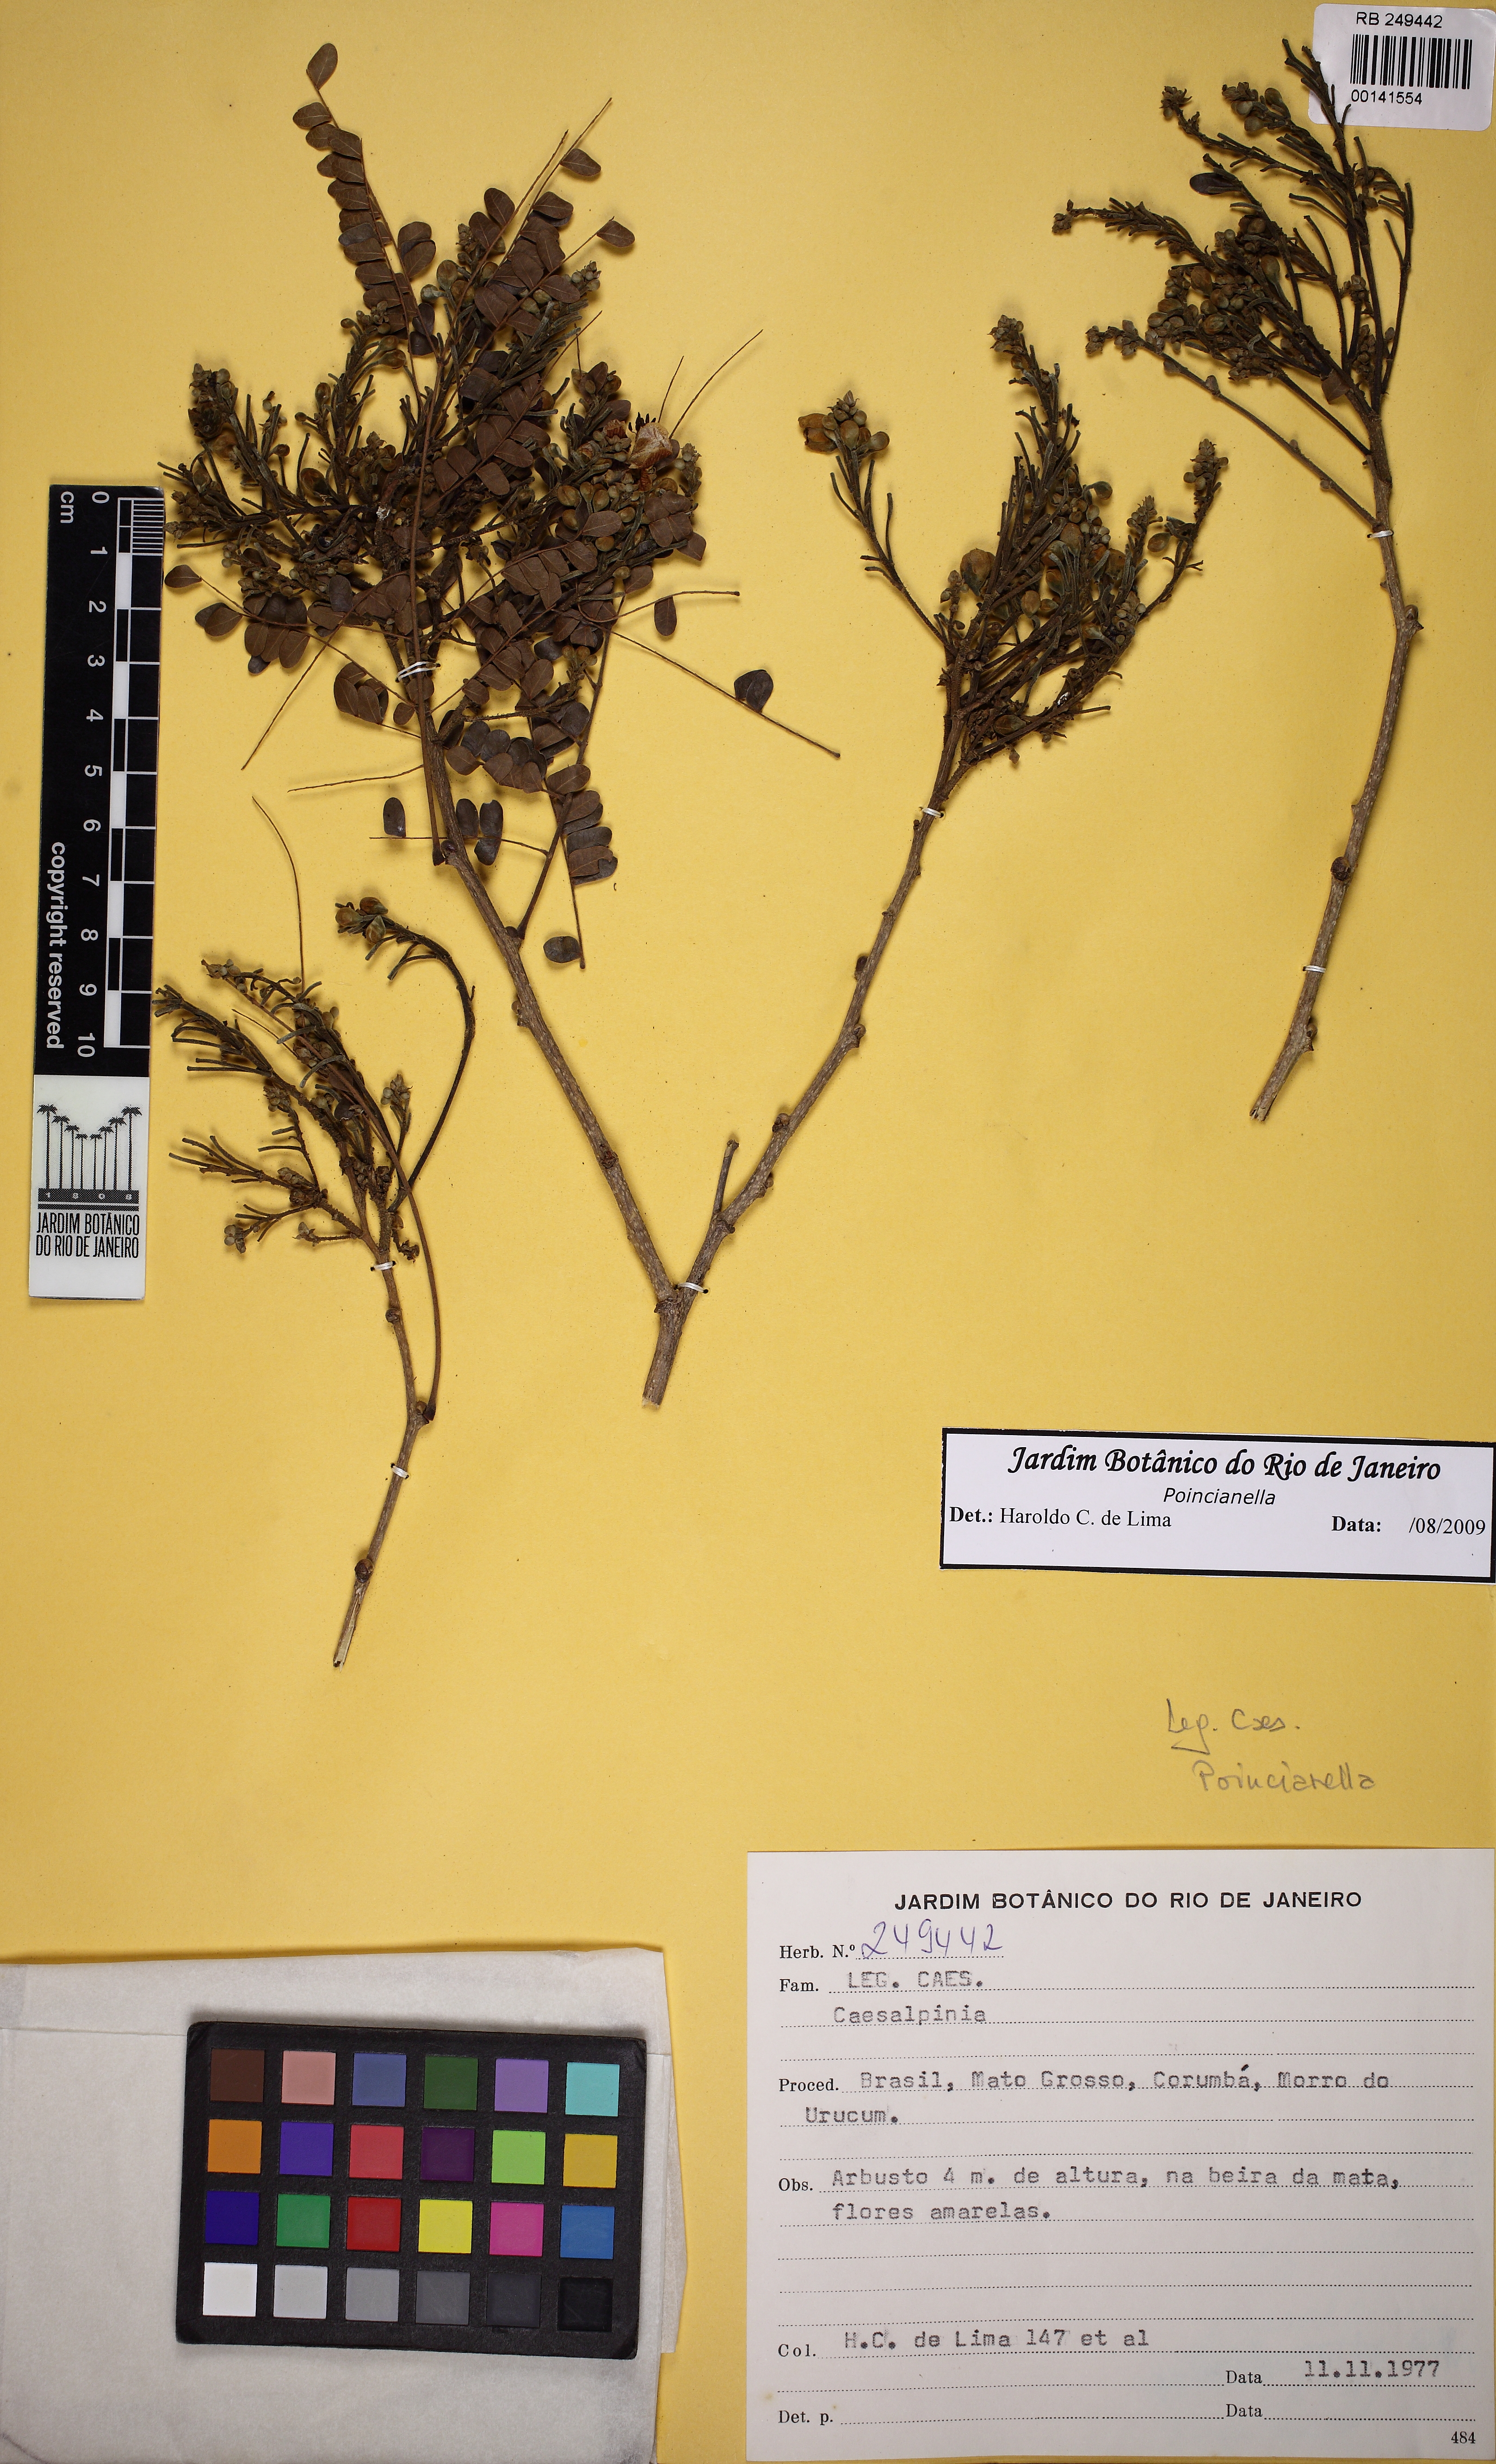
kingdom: Plantae
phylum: Tracheophyta
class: Magnoliopsida
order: Fabales
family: Fabaceae
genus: Erythrostemon
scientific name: Erythrostemon
